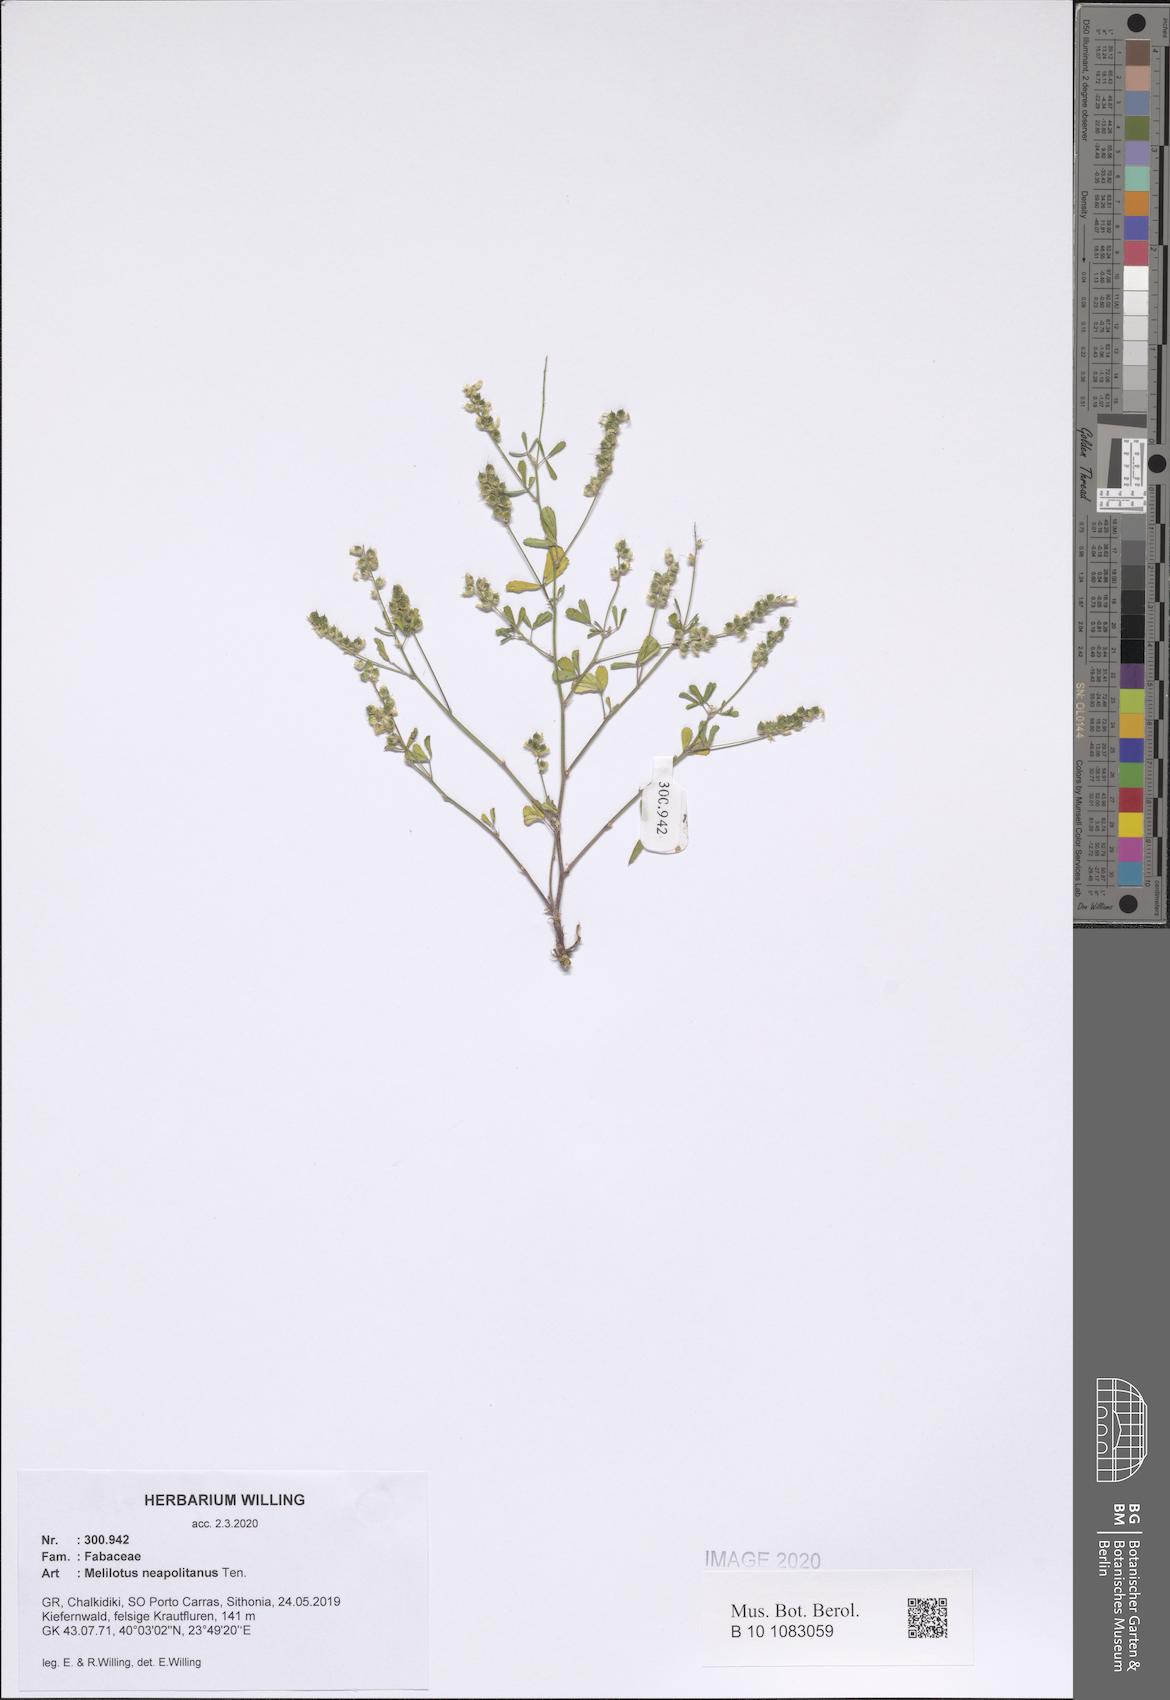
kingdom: Plantae
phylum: Tracheophyta
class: Magnoliopsida
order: Fabales
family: Fabaceae
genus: Melilotus
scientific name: Melilotus neapolitanus
